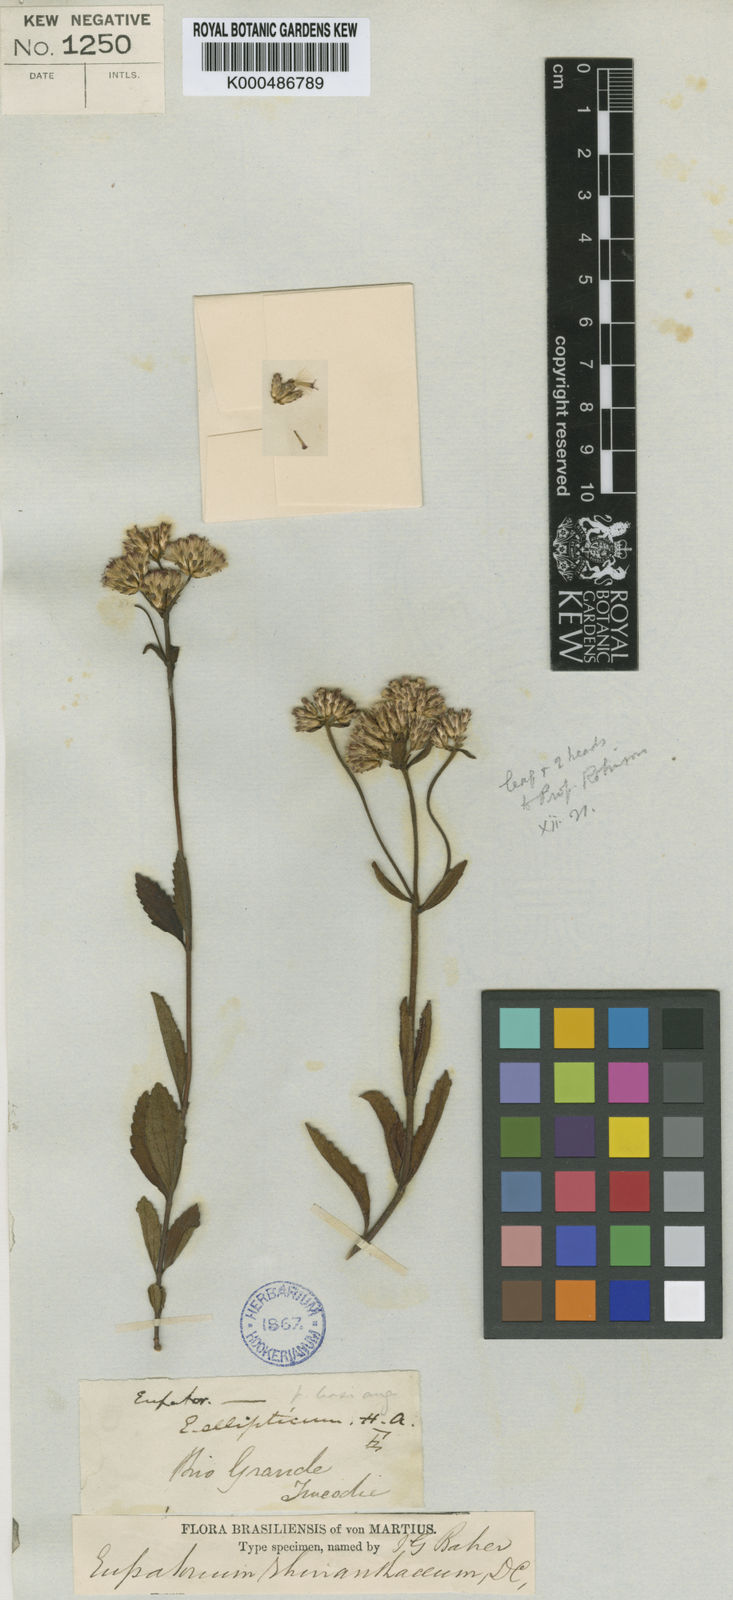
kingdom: Plantae
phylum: Tracheophyta
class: Magnoliopsida
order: Asterales
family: Asteraceae
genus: Chromolaena
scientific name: Chromolaena rhinanthacea
